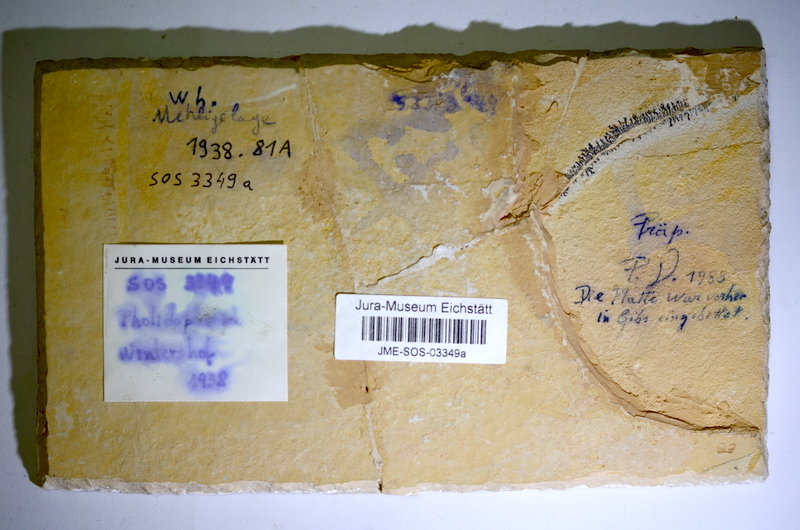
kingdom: Animalia
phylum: Chordata
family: Ankylophoridae
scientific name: Ankylophoridae
